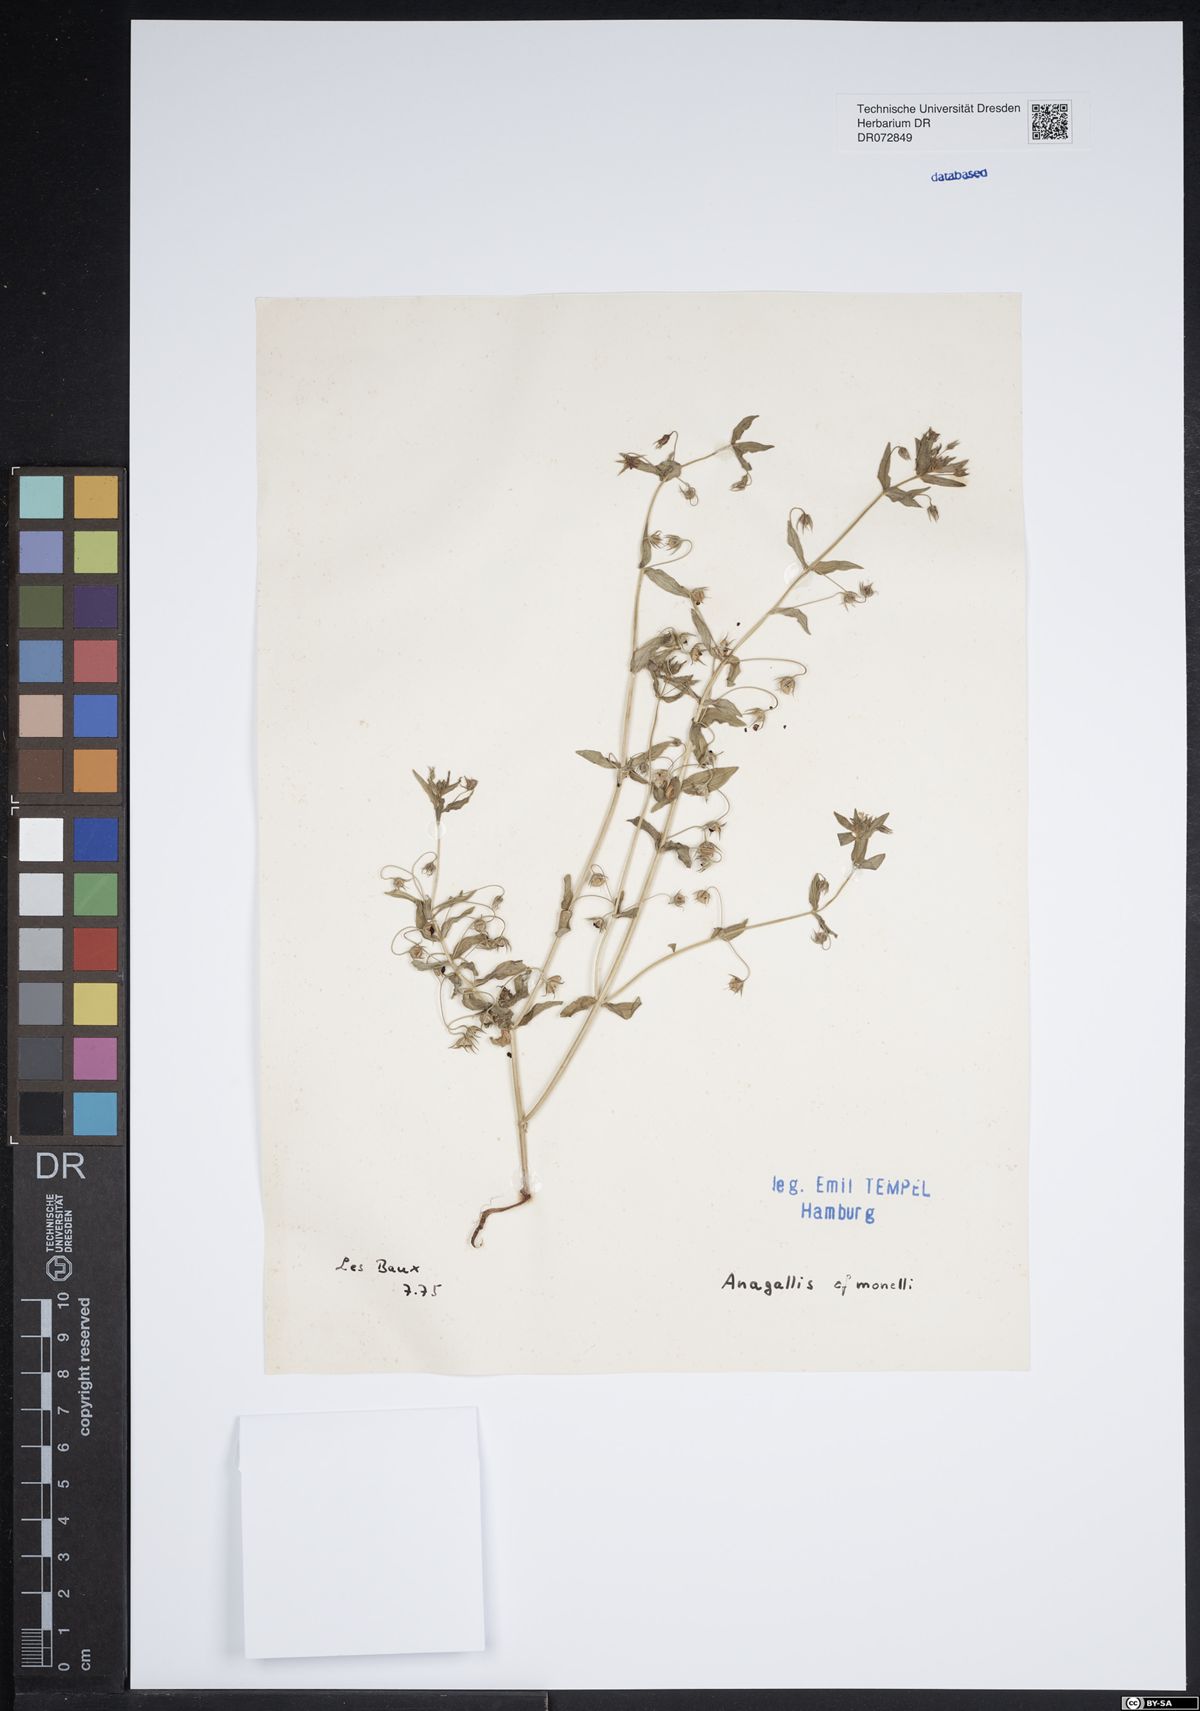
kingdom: Plantae
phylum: Tracheophyta
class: Magnoliopsida
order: Ericales
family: Primulaceae
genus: Lysimachia
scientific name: Lysimachia monelli
